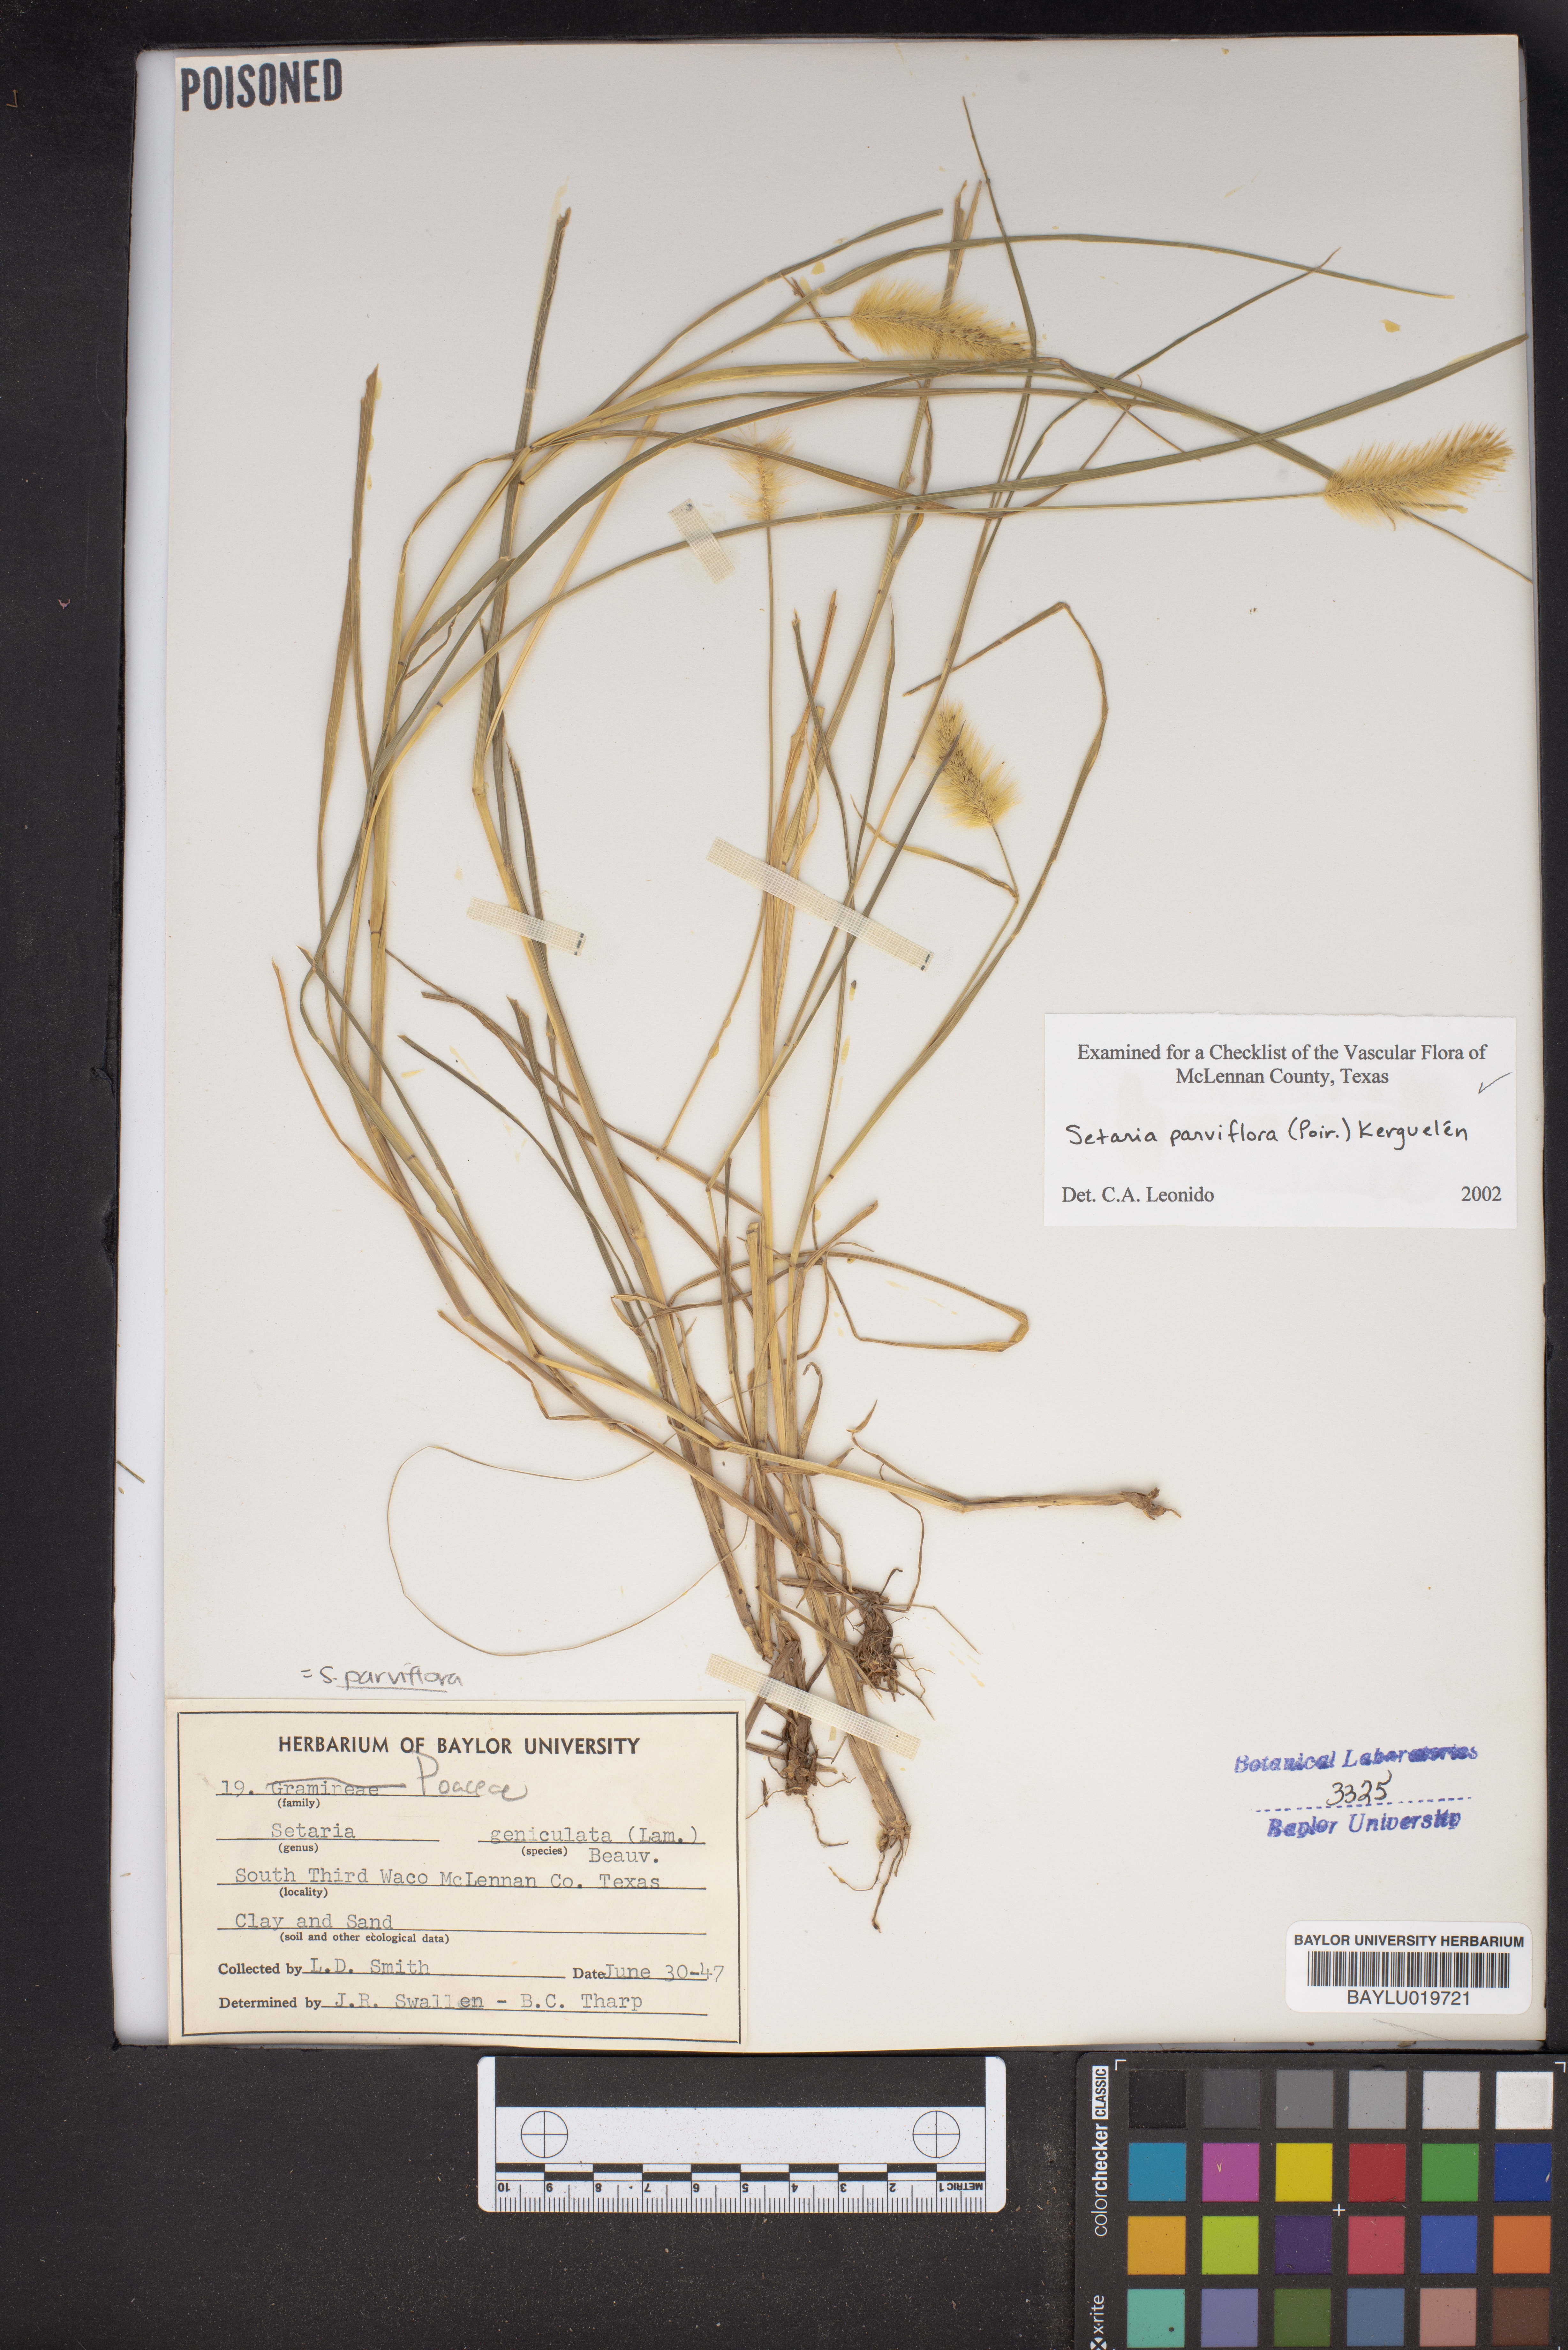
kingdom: Plantae
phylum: Tracheophyta
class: Liliopsida
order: Poales
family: Poaceae
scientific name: Poaceae
